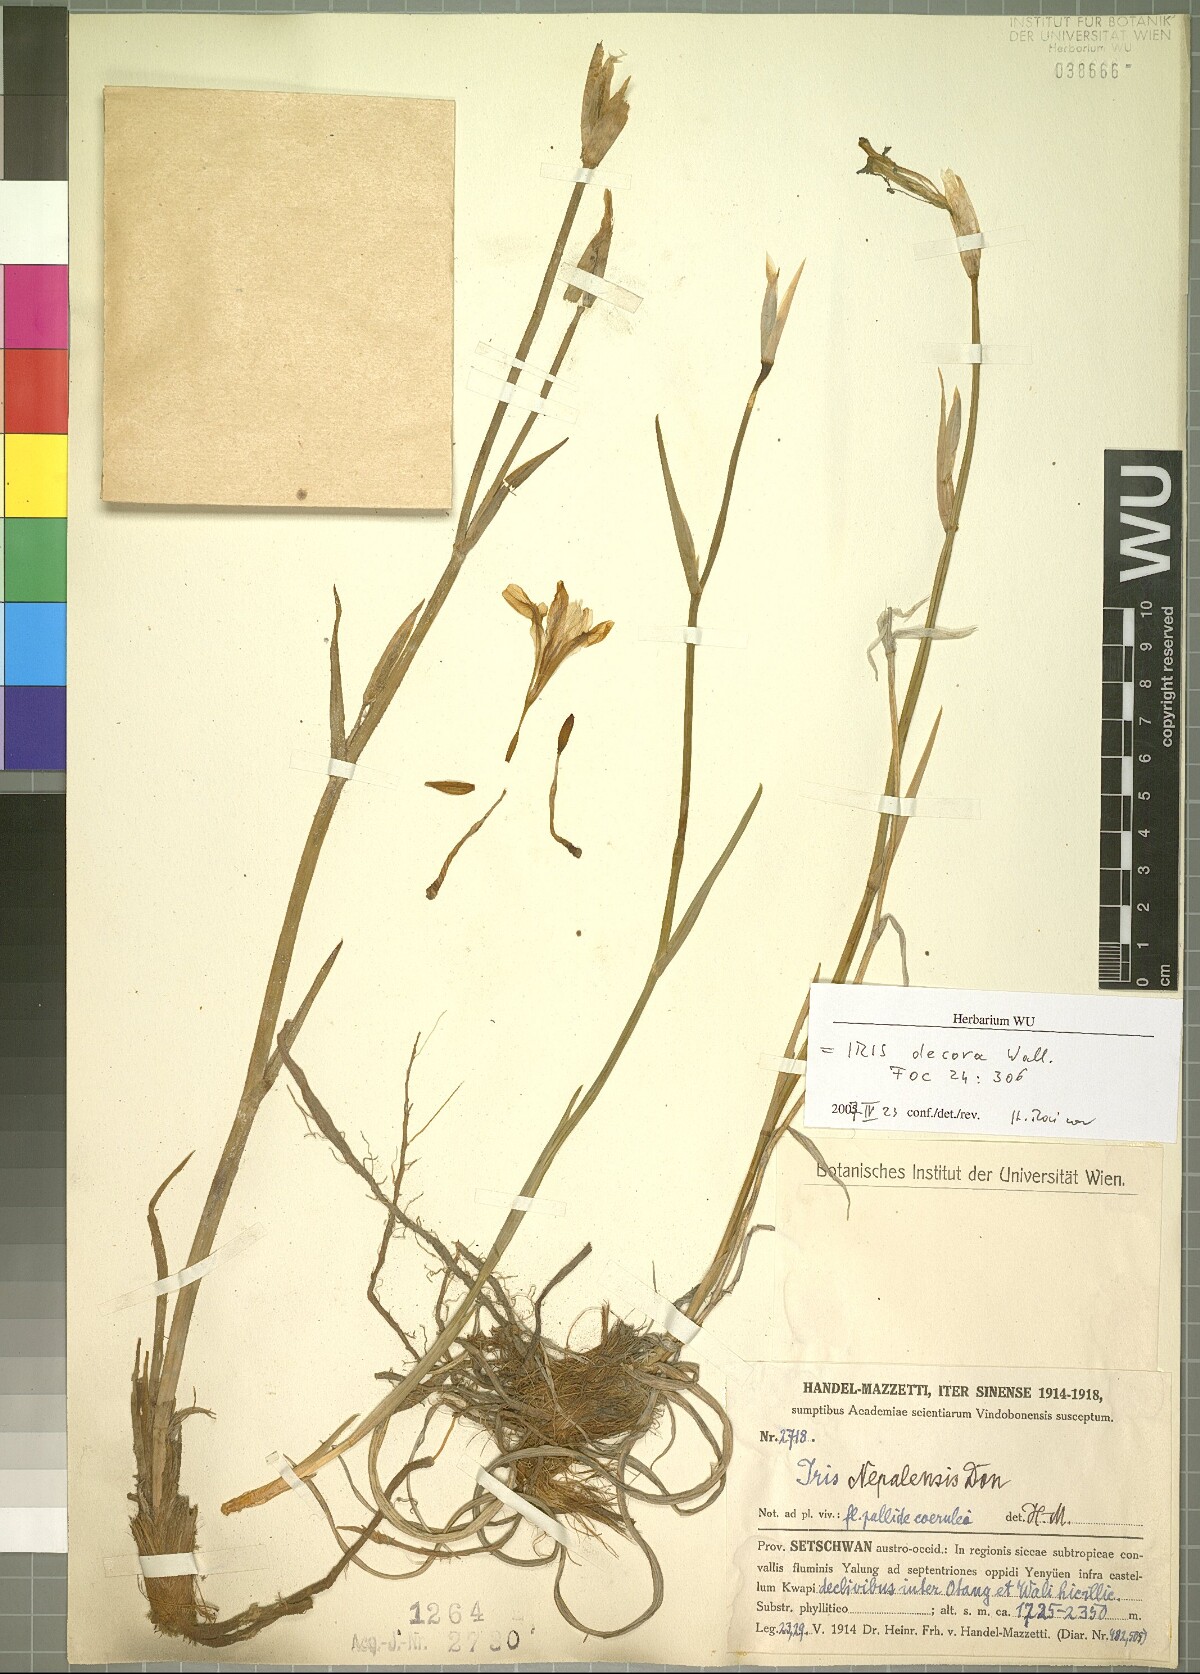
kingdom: Plantae
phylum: Tracheophyta
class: Liliopsida
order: Asparagales
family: Iridaceae
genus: Iris
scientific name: Iris decora
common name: Nepal iris
